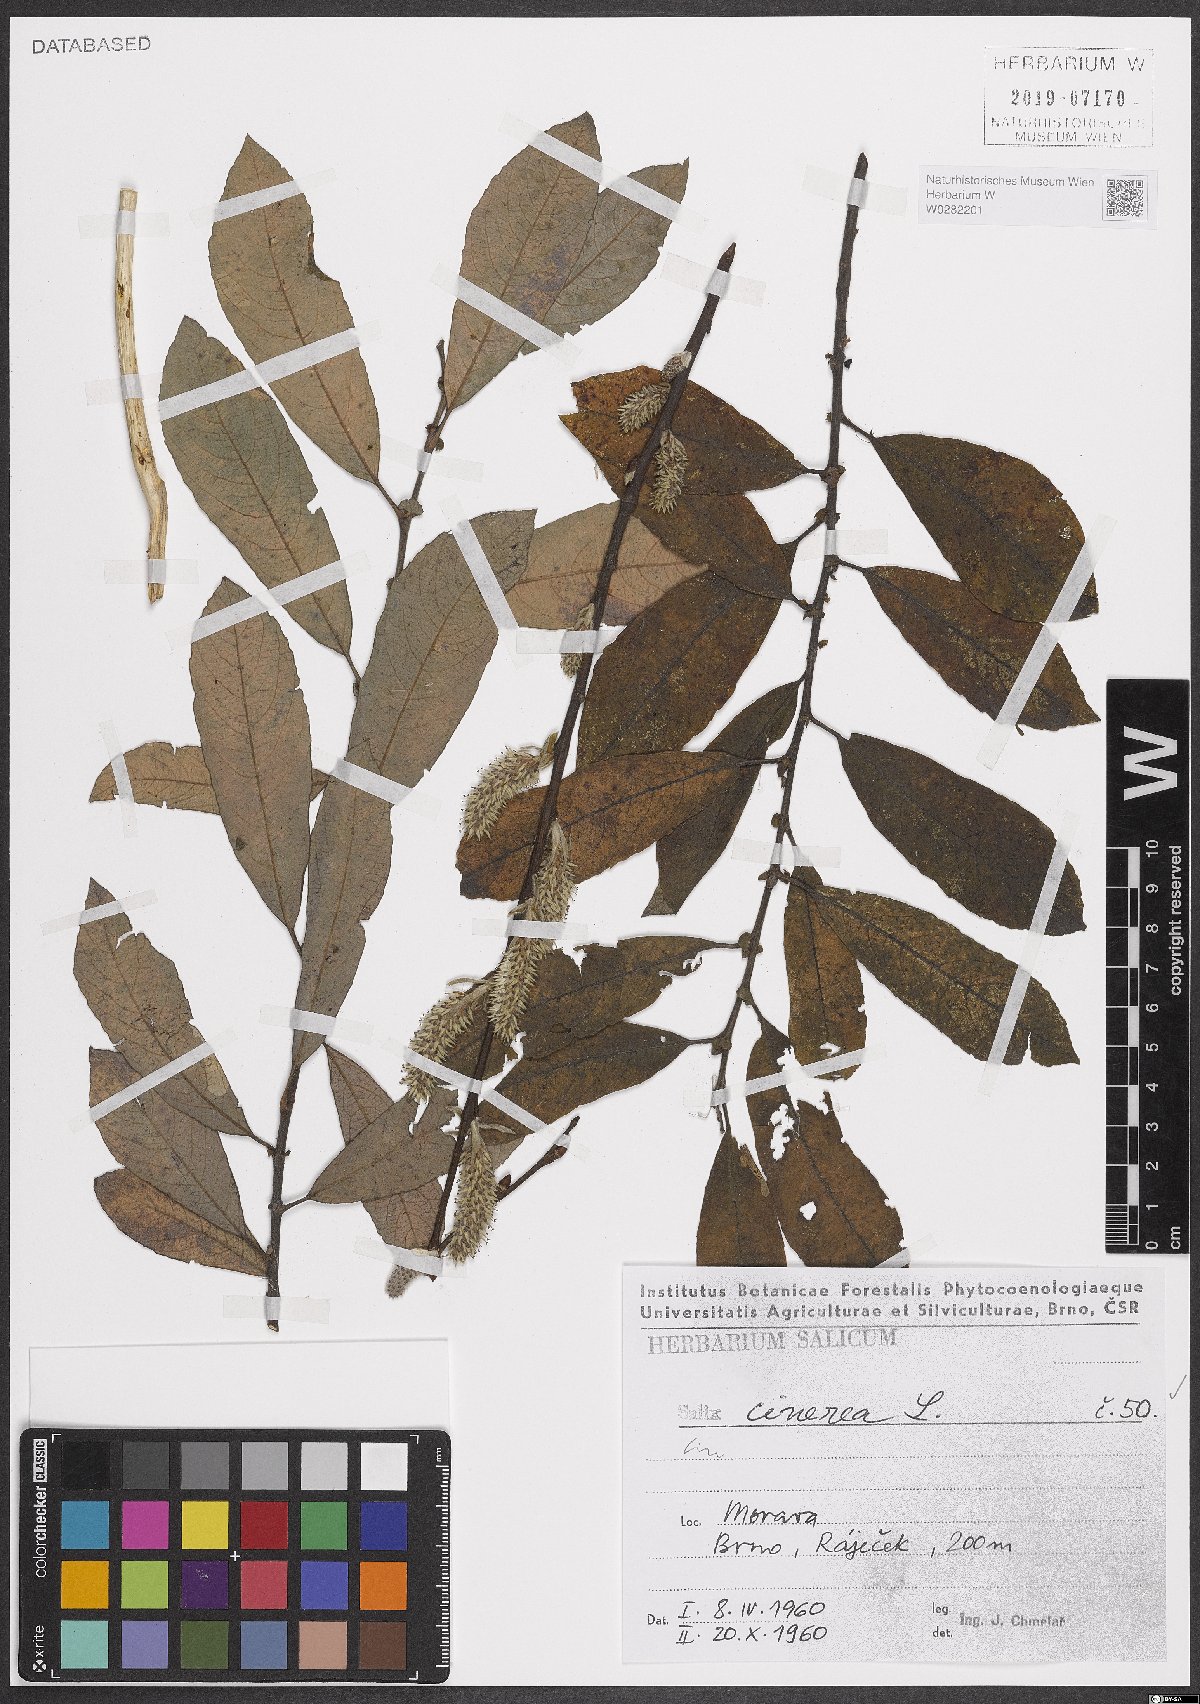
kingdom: Plantae
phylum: Tracheophyta
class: Magnoliopsida
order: Malpighiales
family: Salicaceae
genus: Salix
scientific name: Salix cinerea
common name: Common sallow
